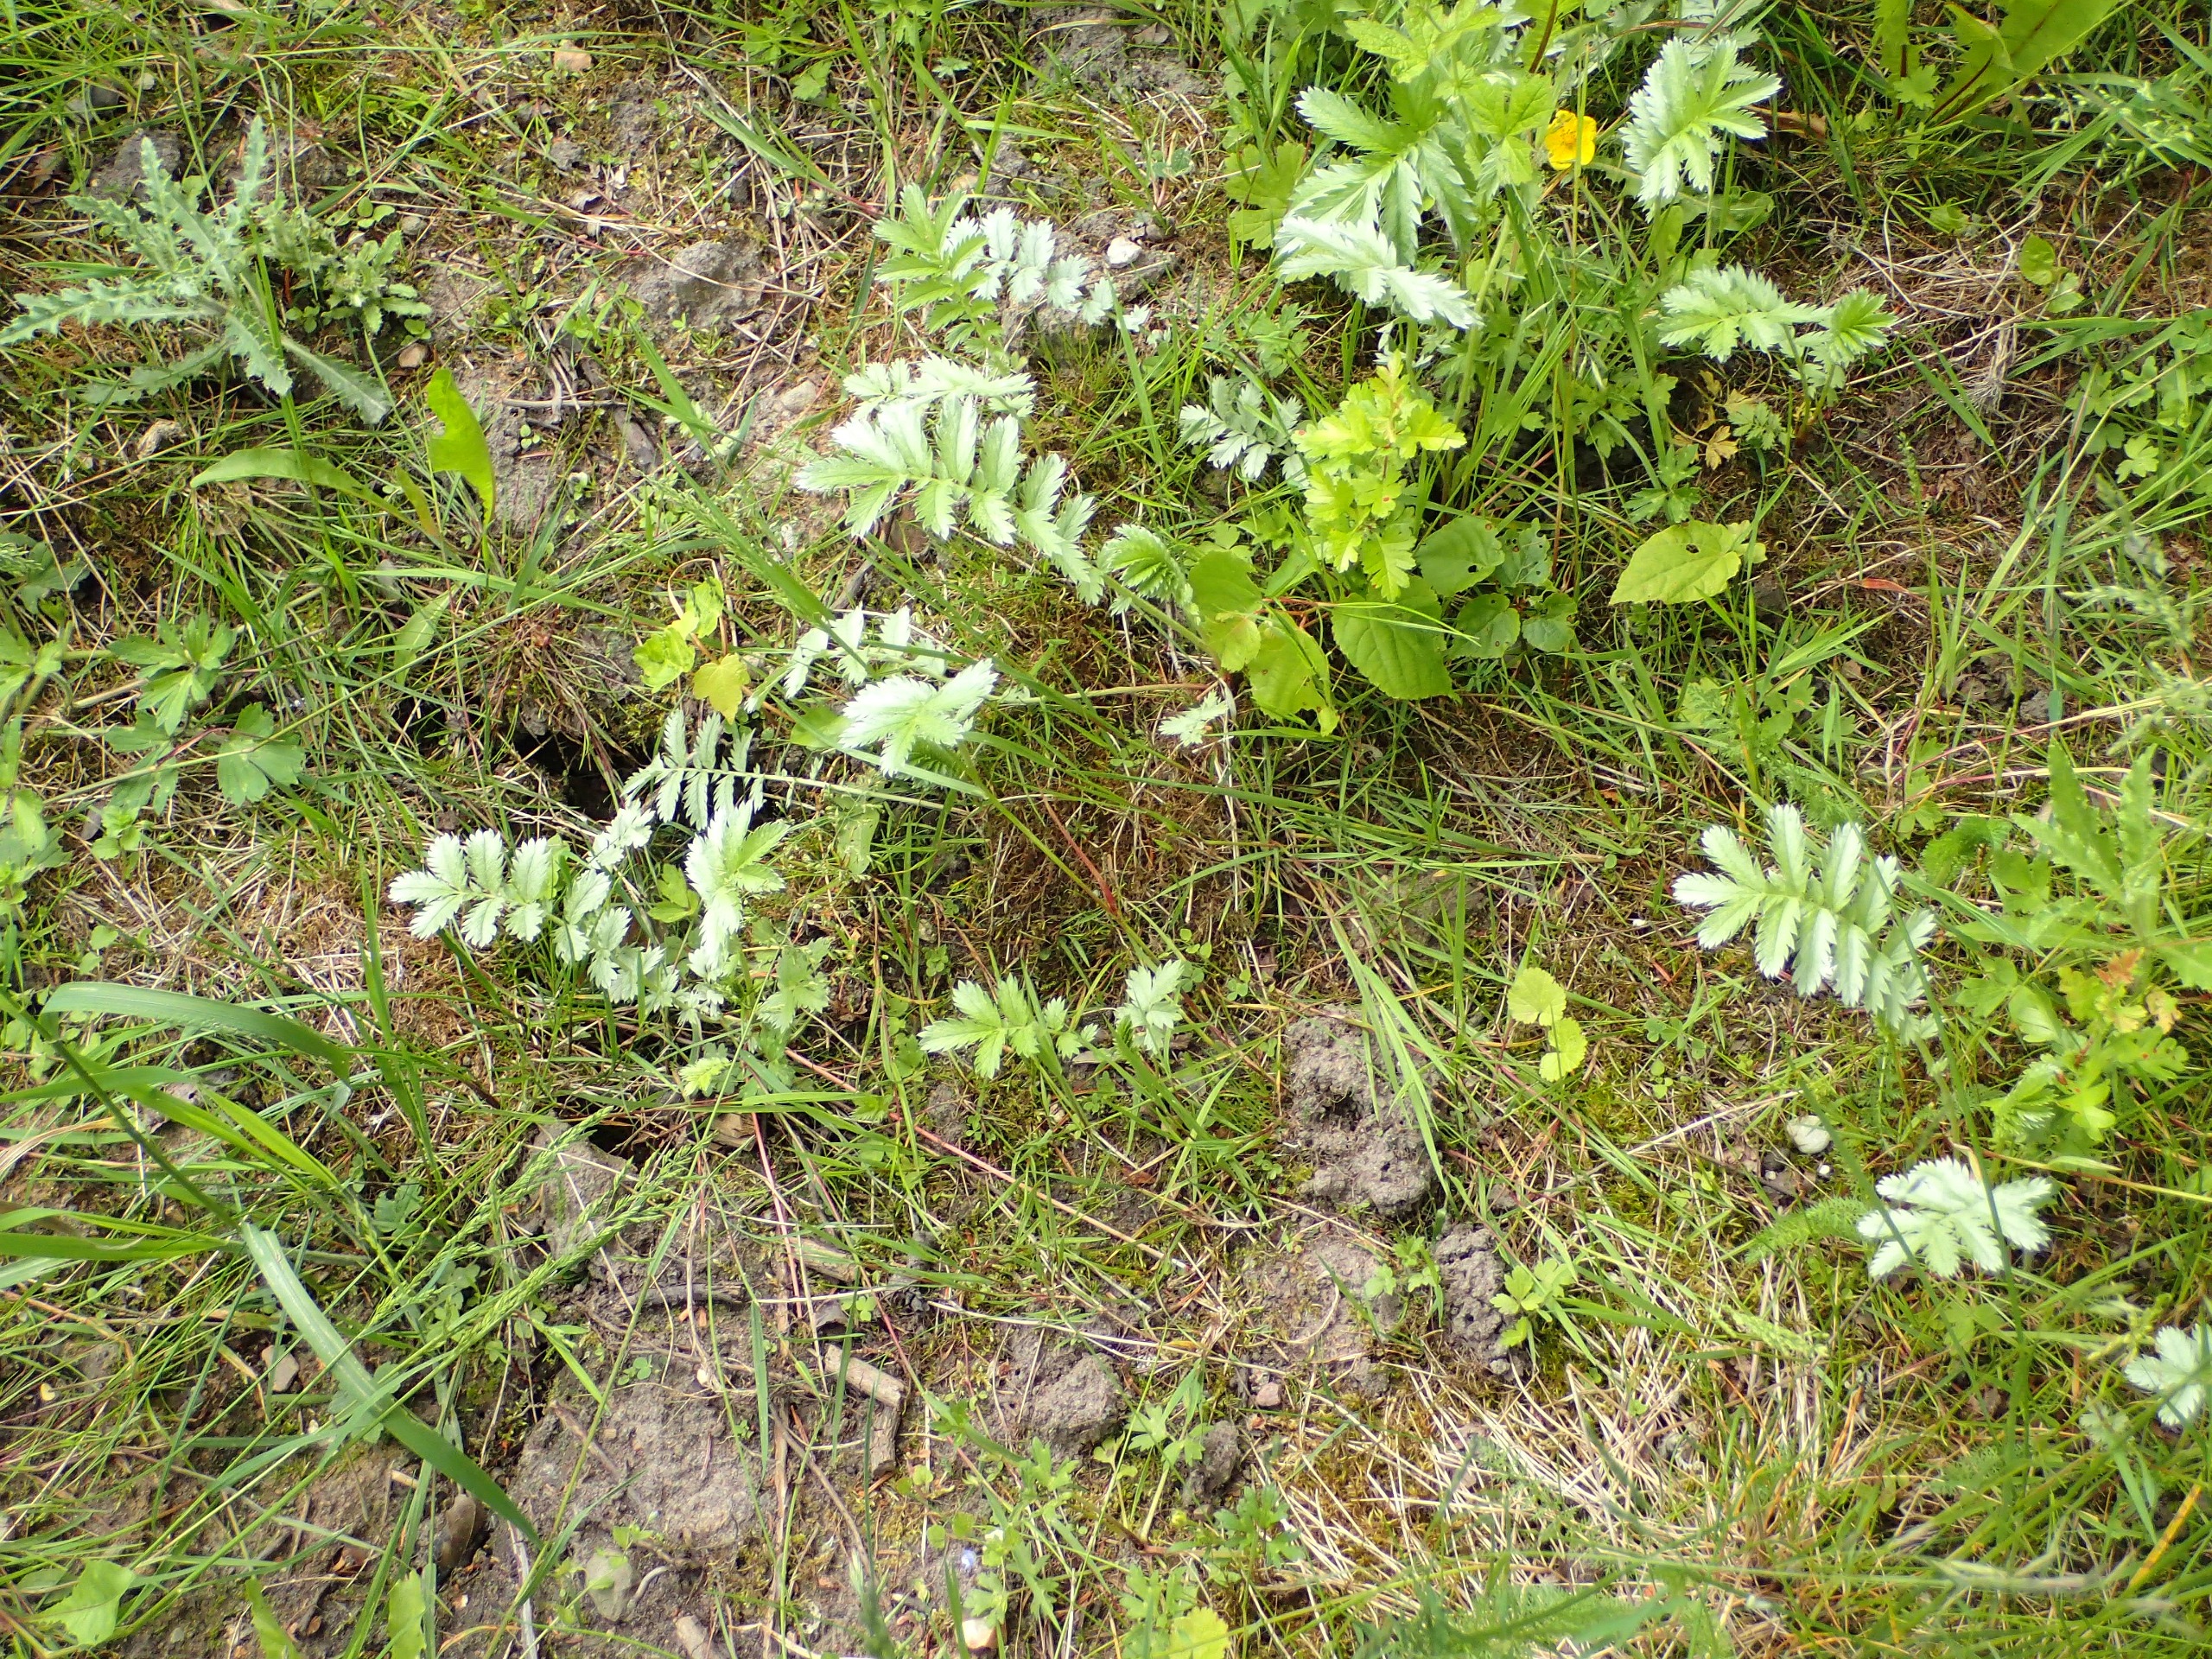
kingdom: Plantae
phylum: Tracheophyta
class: Magnoliopsida
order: Rosales
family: Rosaceae
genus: Argentina
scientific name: Argentina anserina
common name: Gåsepotentil
